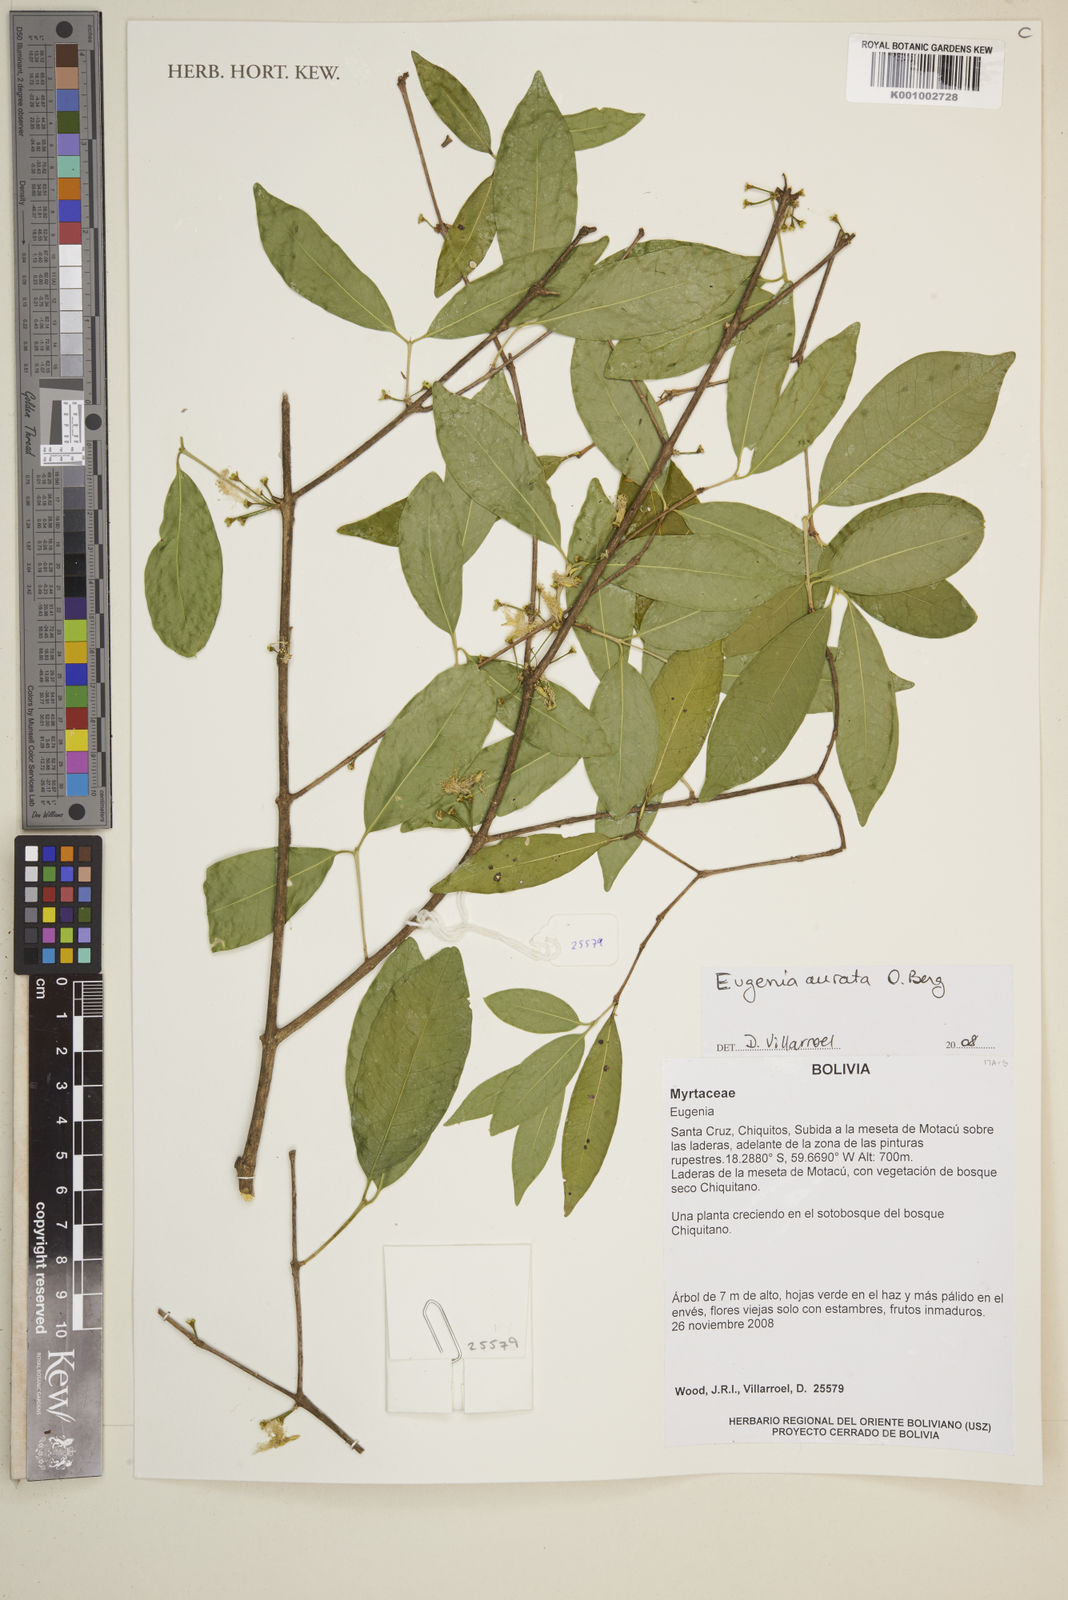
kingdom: Plantae
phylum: Tracheophyta
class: Magnoliopsida
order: Myrtales
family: Myrtaceae
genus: Eugenia
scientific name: Eugenia aurata
